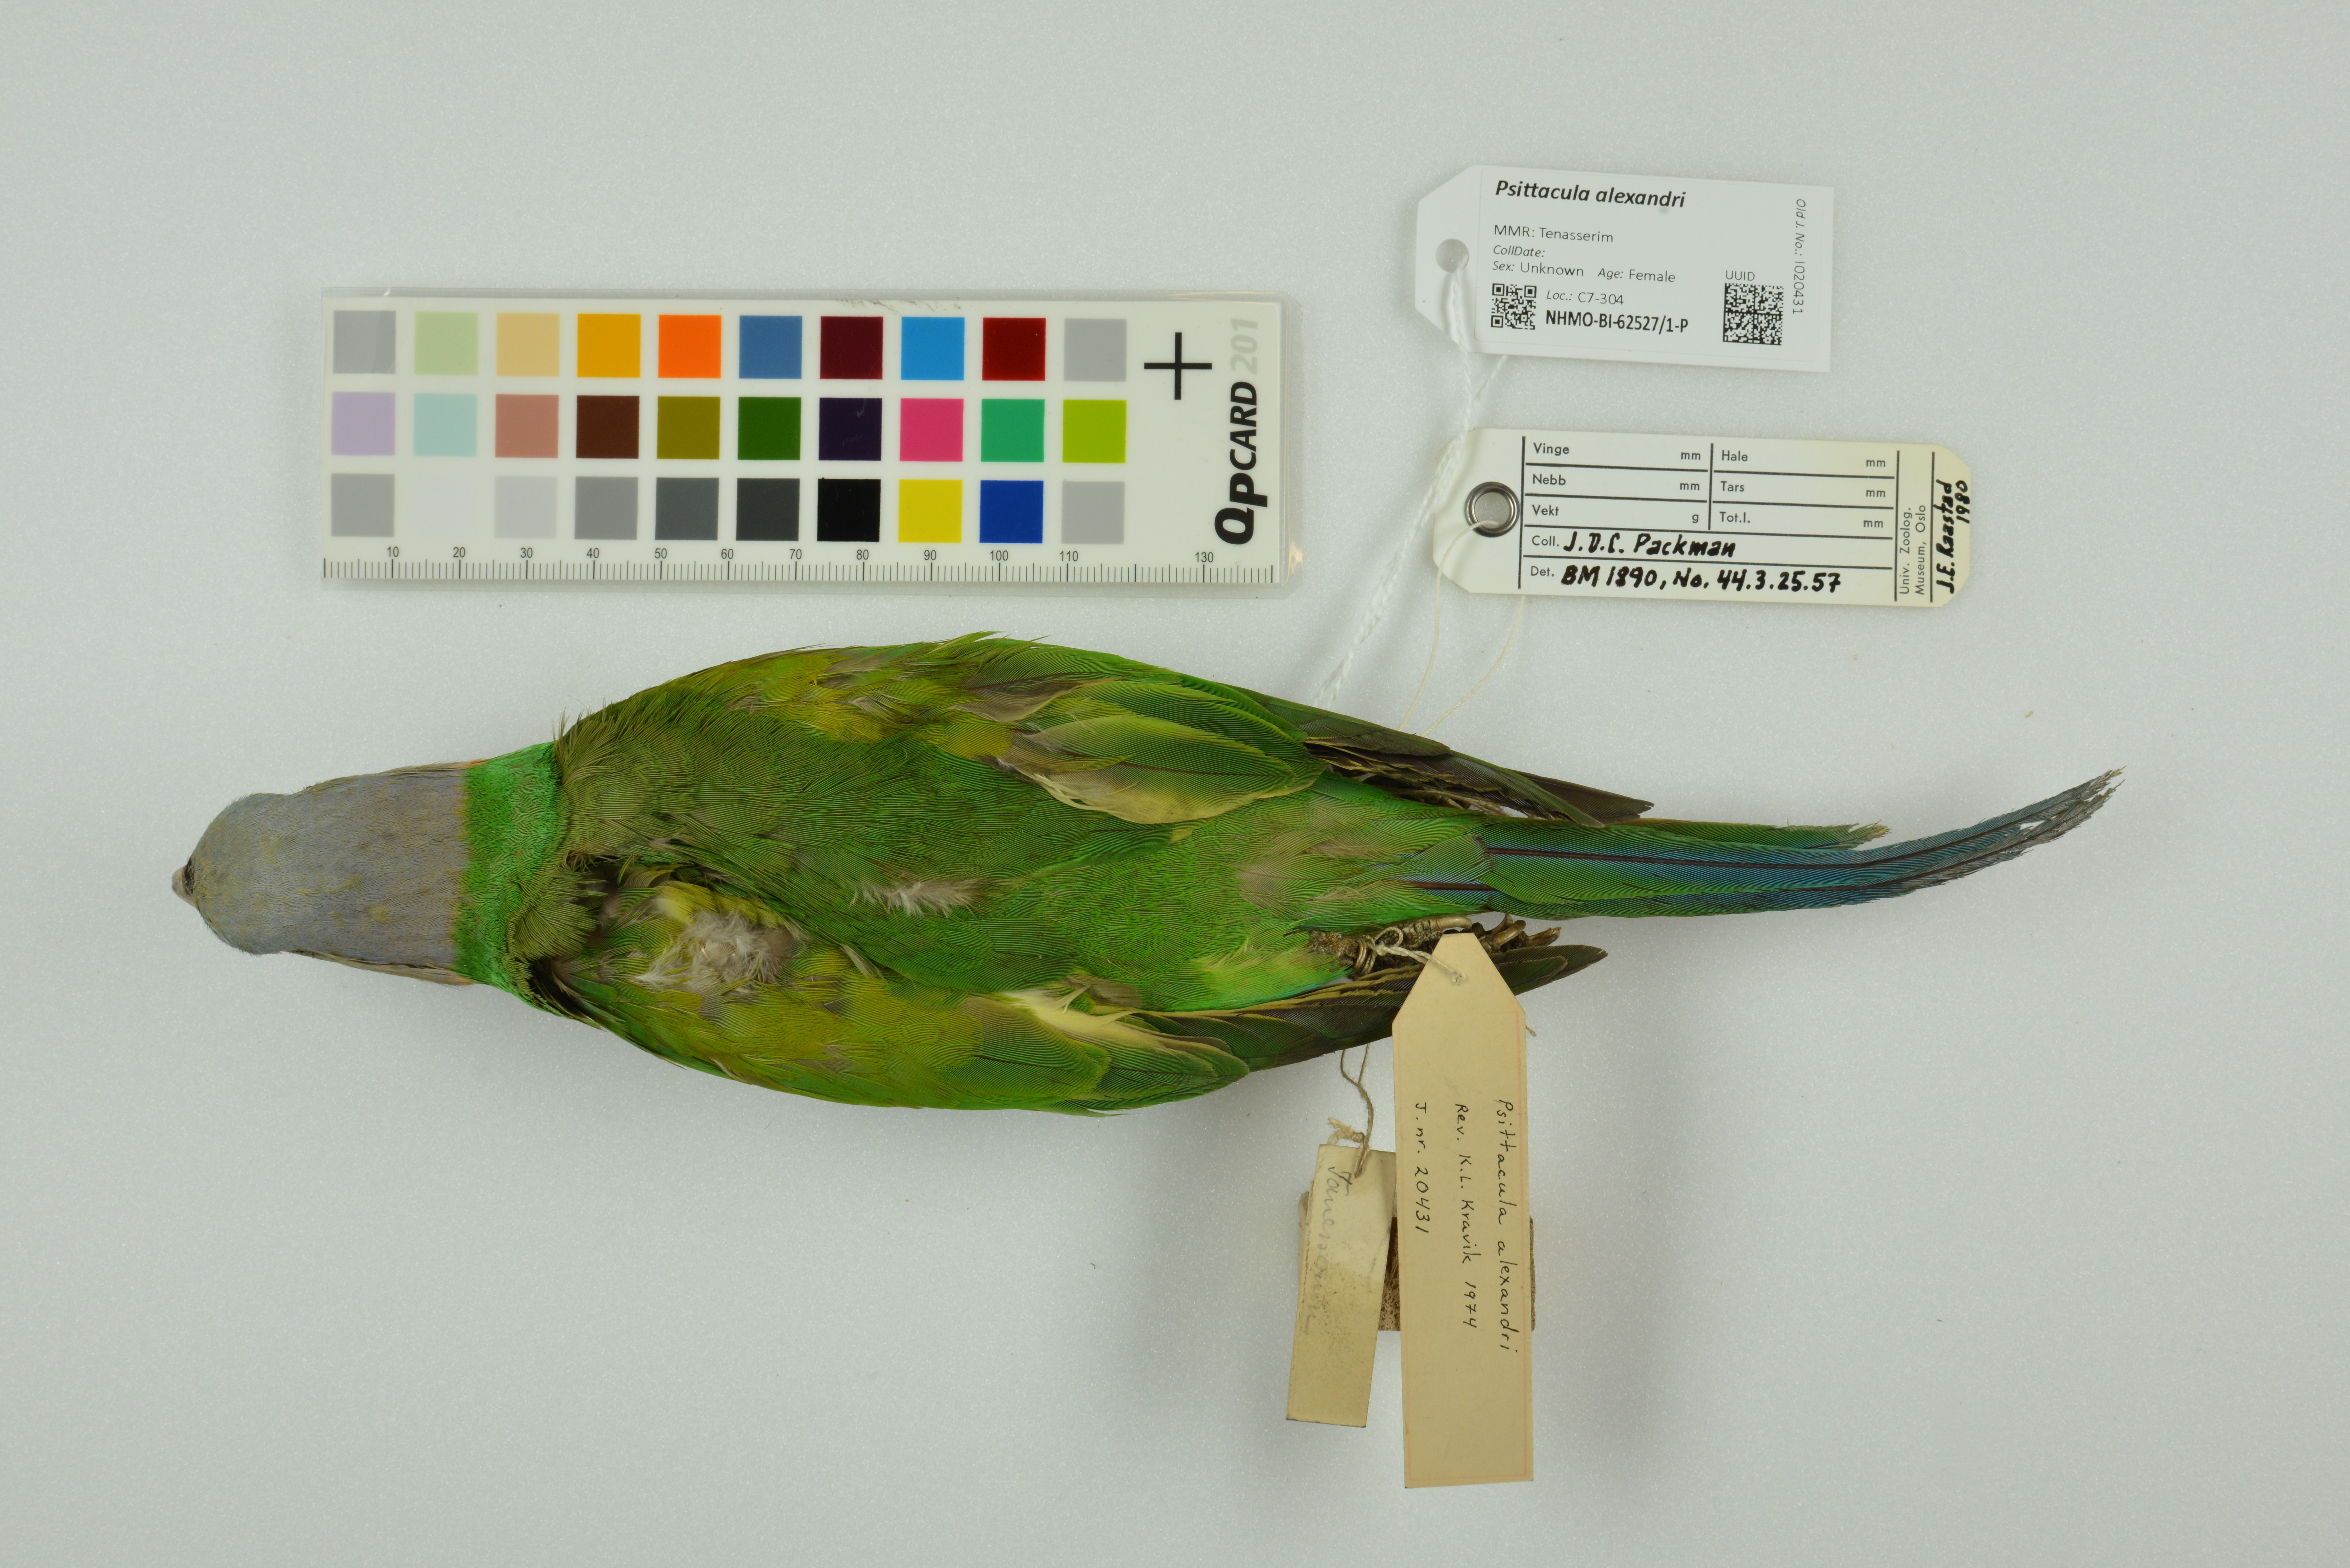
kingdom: Animalia
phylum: Chordata
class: Aves
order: Psittaciformes
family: Psittacidae
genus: Psittacula
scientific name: Psittacula alexandri
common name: Red-breasted parakeet
